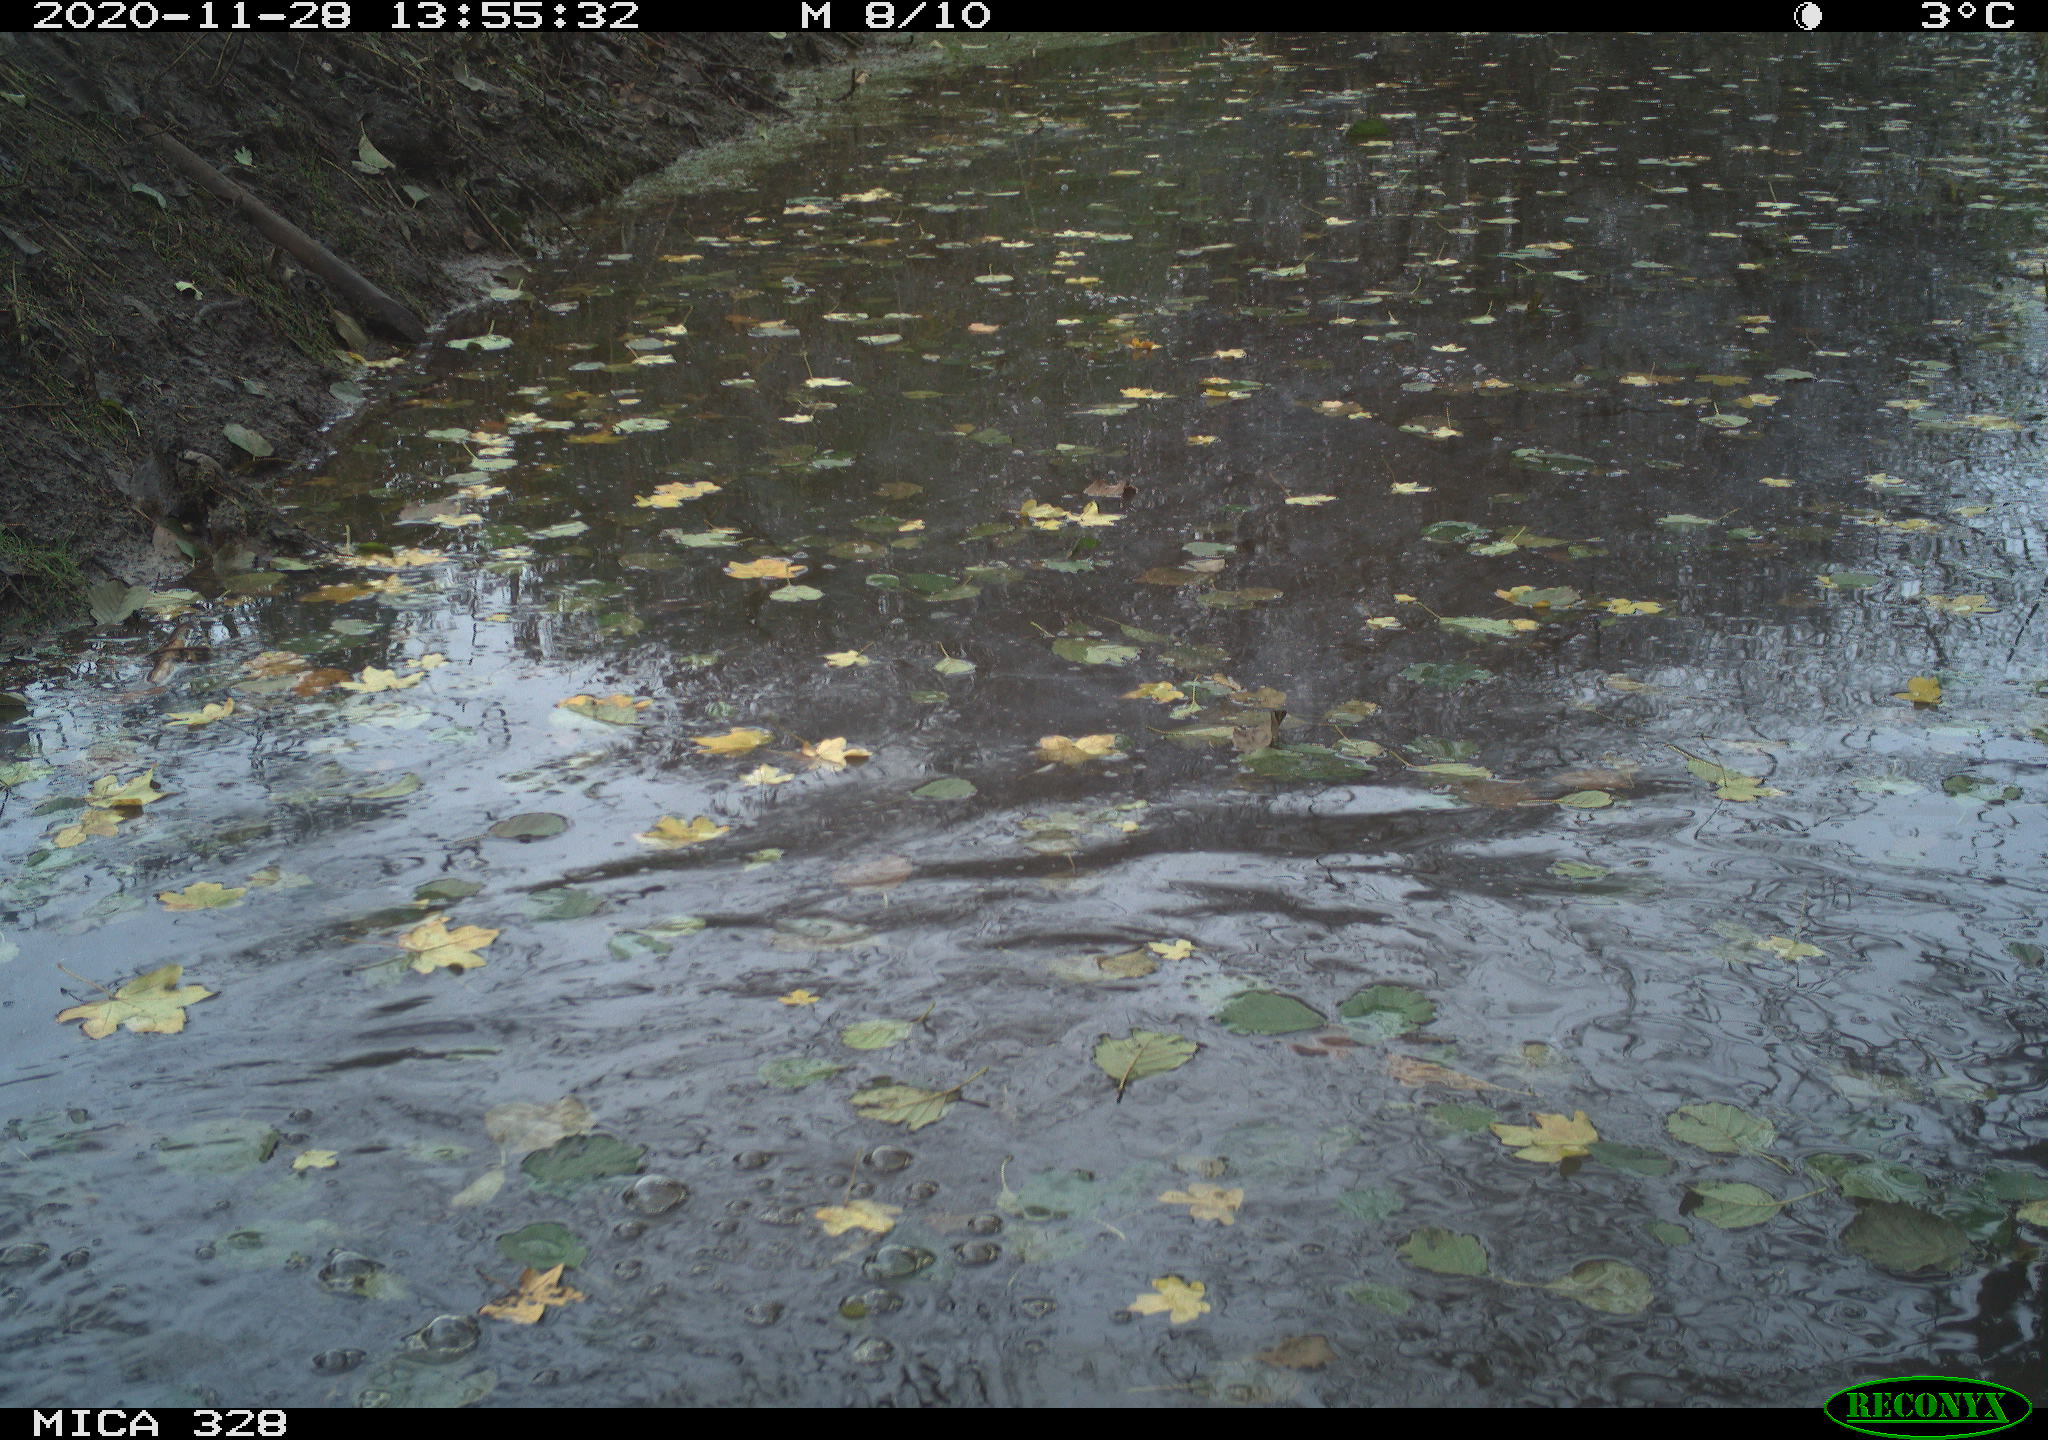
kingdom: Animalia
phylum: Chordata
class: Aves
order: Pelecaniformes
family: Ardeidae
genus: Ardea
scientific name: Ardea alba
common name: Great egret
